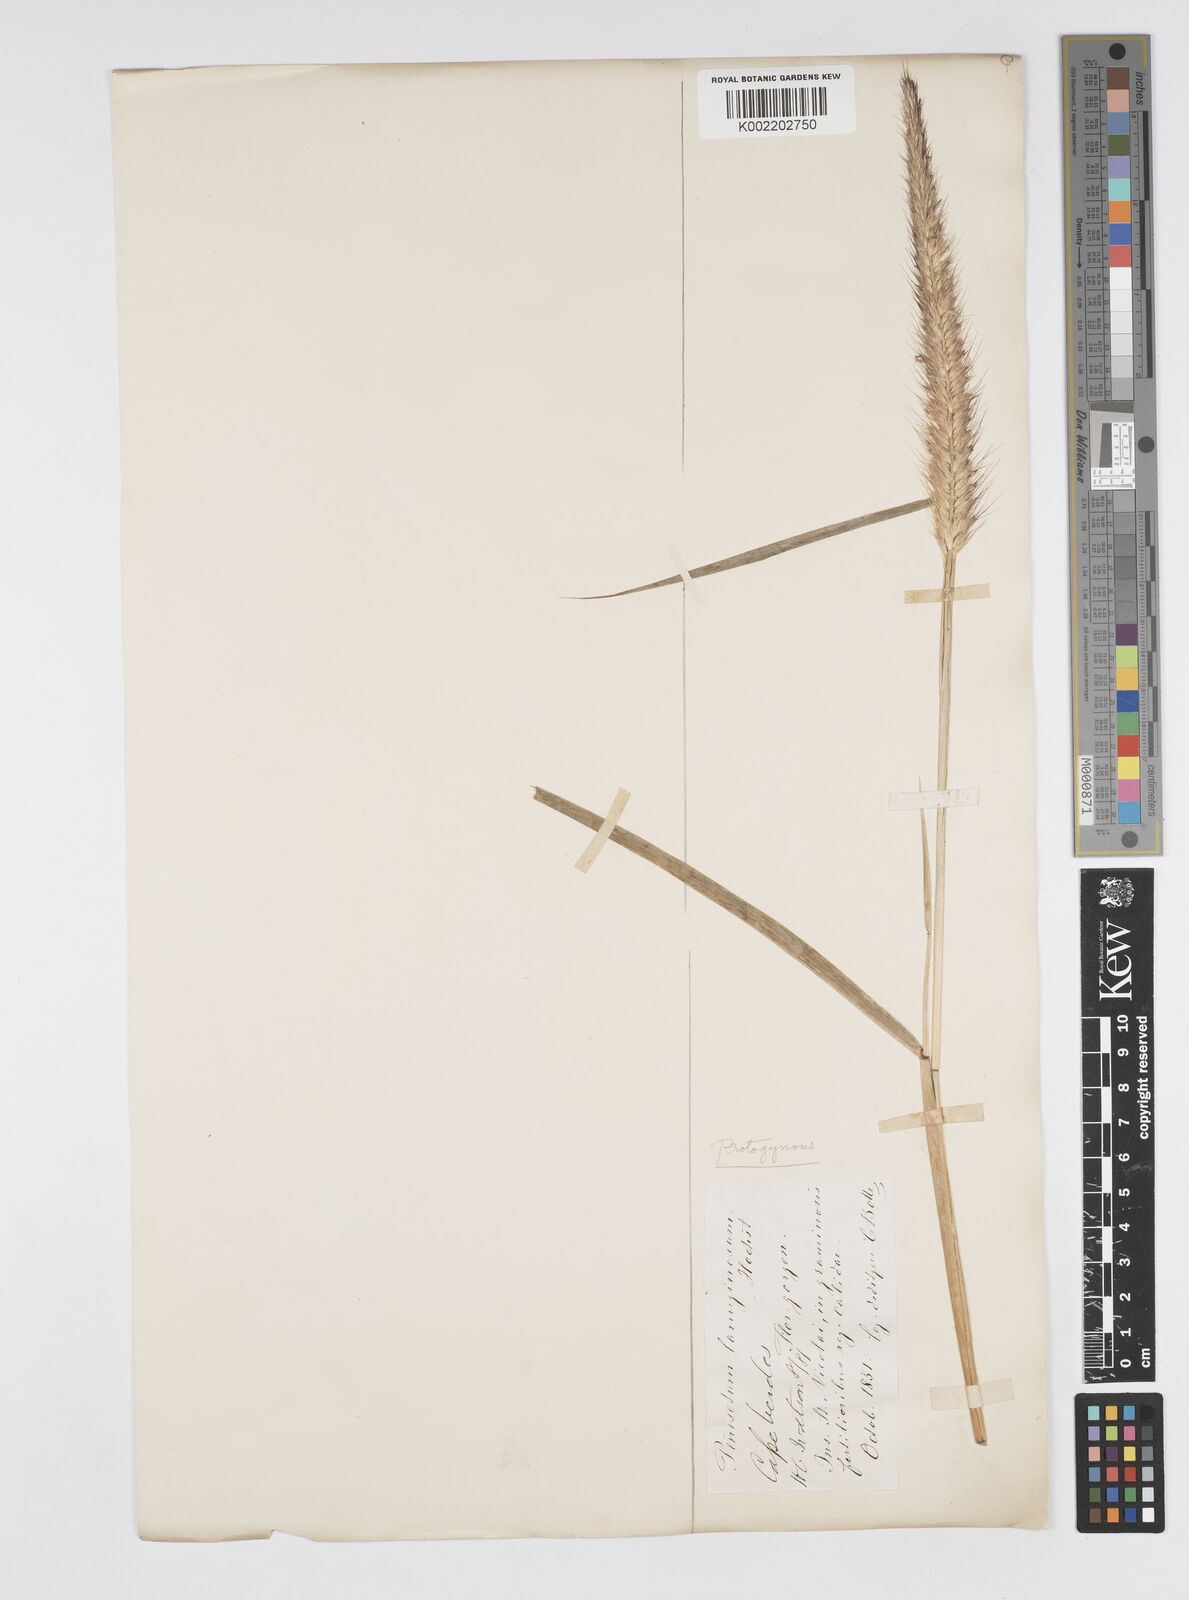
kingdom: Plantae
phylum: Tracheophyta
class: Liliopsida
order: Poales
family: Poaceae
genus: Cenchrus
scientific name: Cenchrus pedicellatus
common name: Hairy fountain grass
